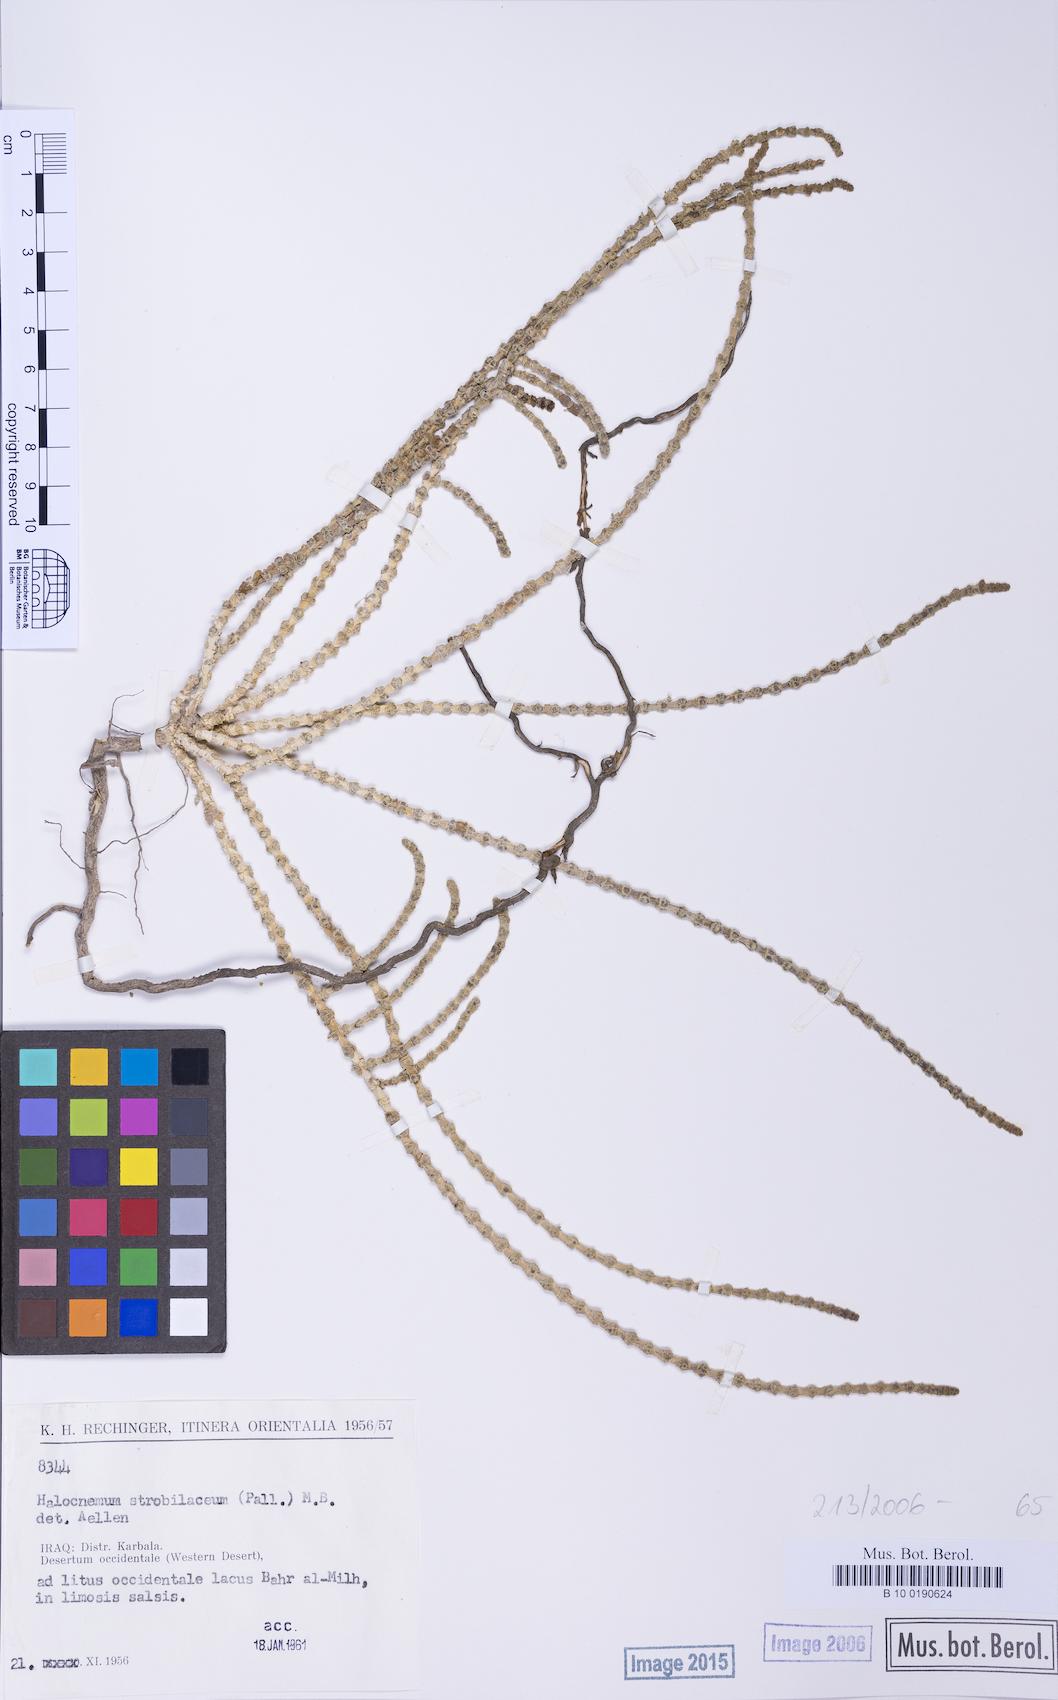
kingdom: Plantae
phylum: Tracheophyta
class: Magnoliopsida
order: Caryophyllales
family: Amaranthaceae
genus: Halocnemum
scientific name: Halocnemum strobilaceum
